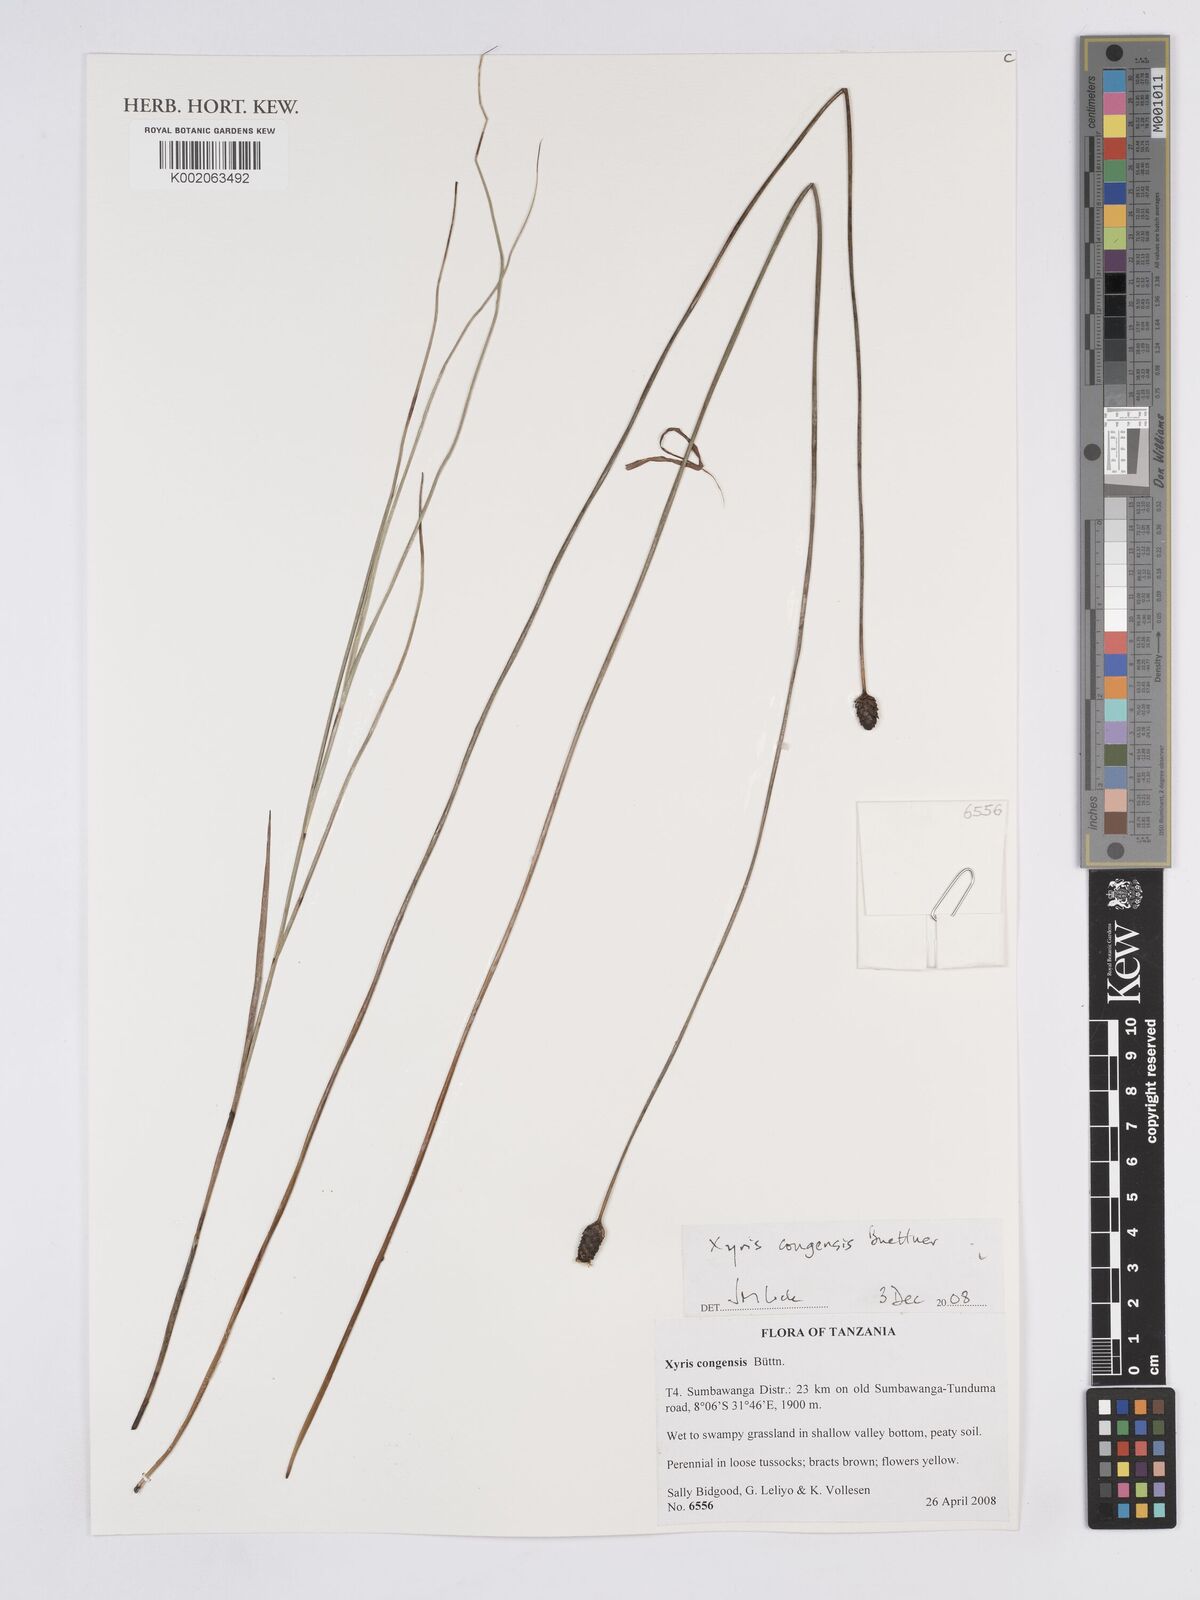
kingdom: Plantae
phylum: Tracheophyta
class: Liliopsida
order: Poales
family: Xyridaceae
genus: Xyris
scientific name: Xyris congensis
